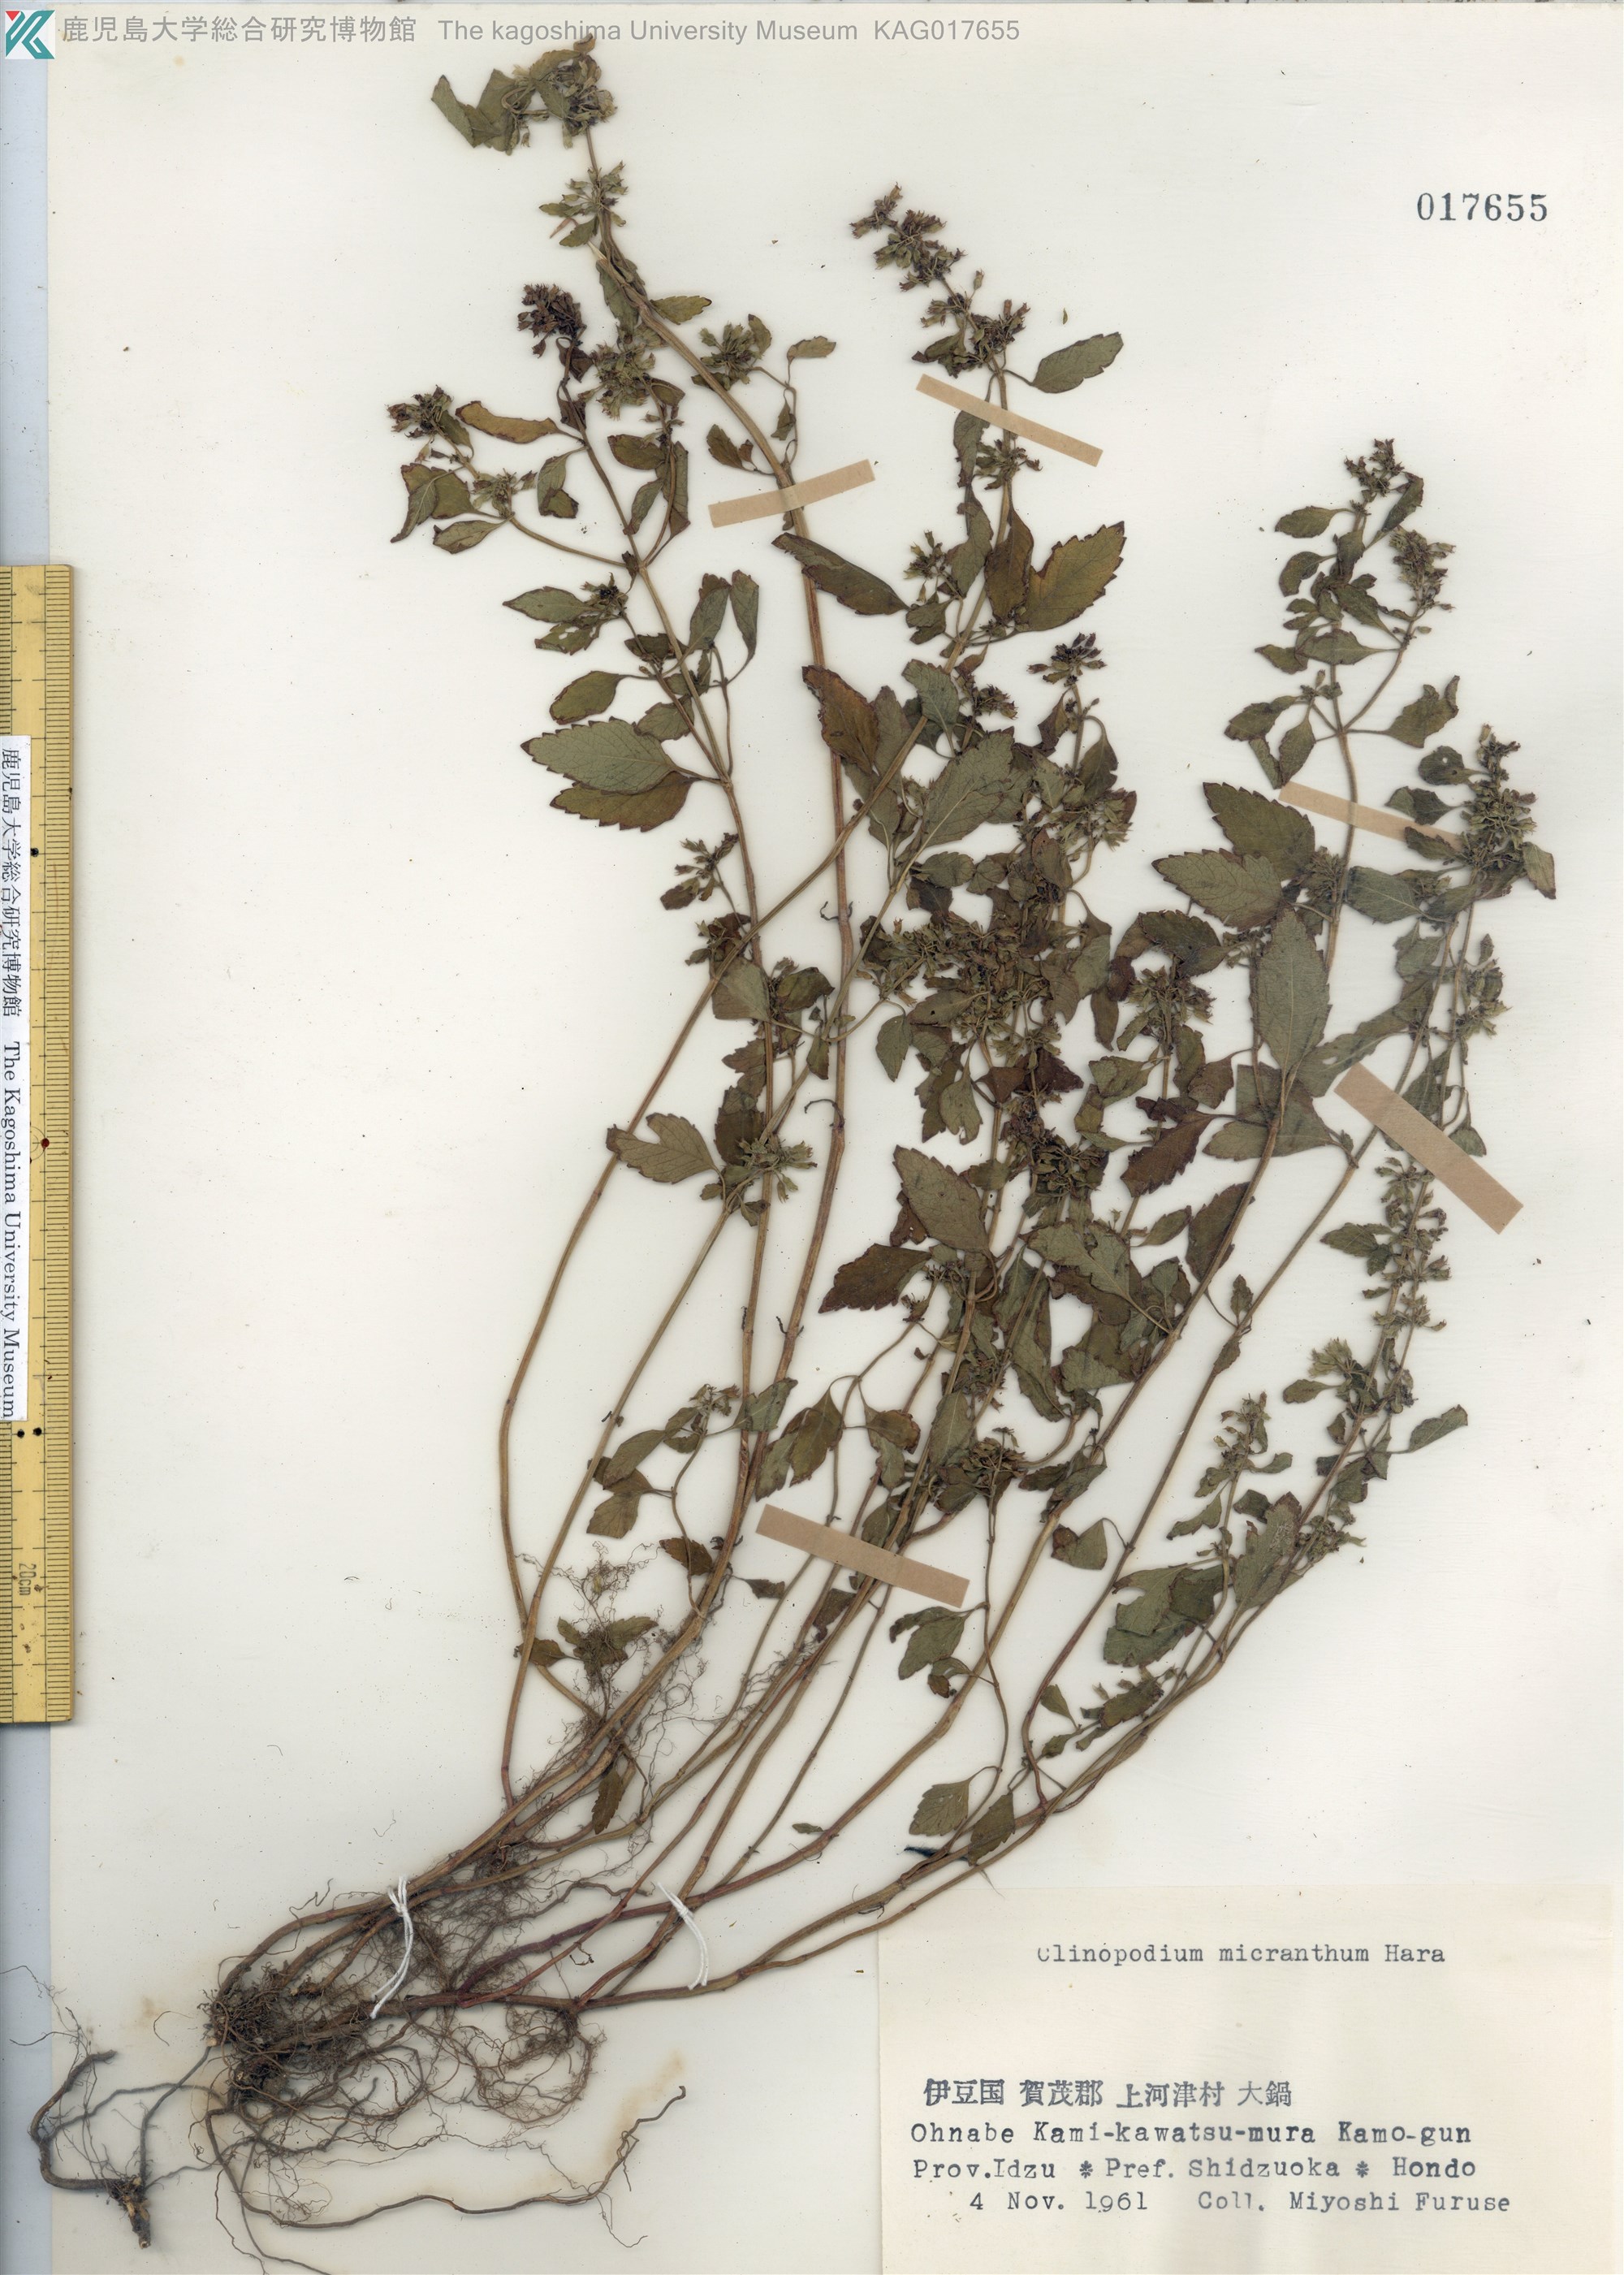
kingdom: Plantae
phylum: Tracheophyta
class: Magnoliopsida
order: Lamiales
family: Lamiaceae
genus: Clinopodium
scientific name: Clinopodium micranthum
